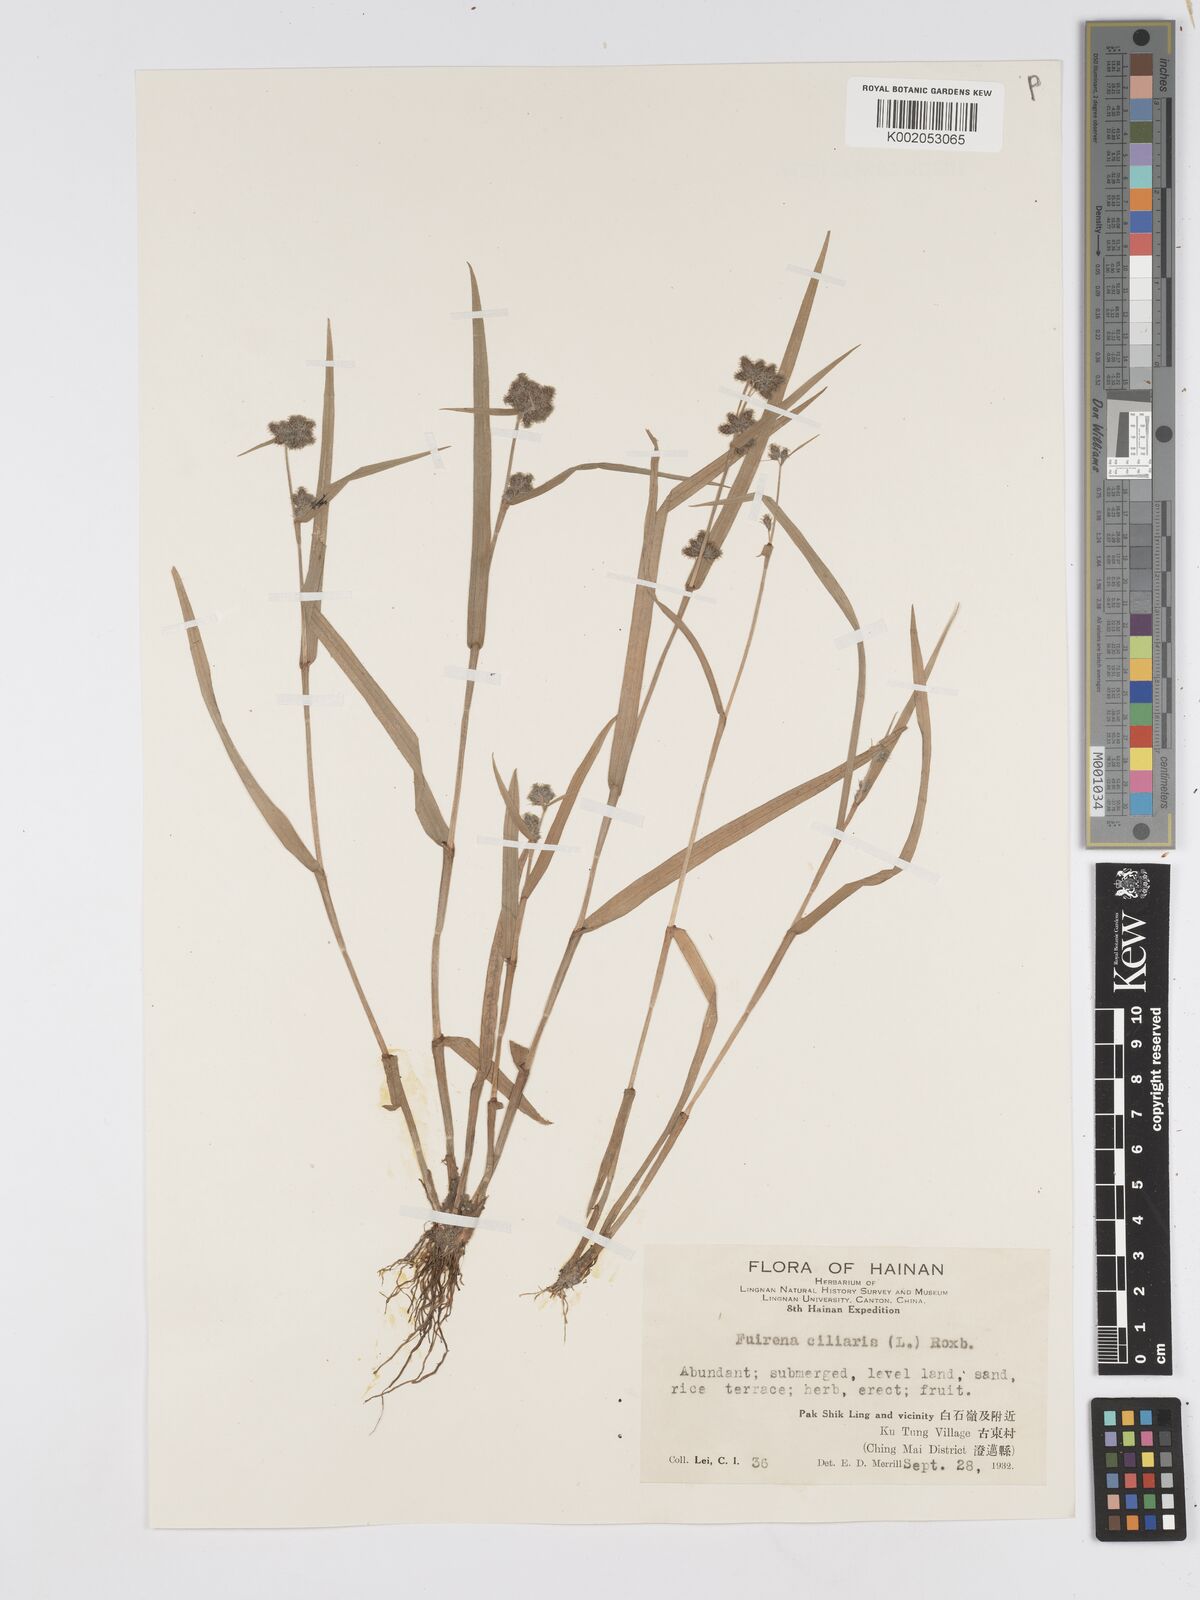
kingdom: Plantae
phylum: Tracheophyta
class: Liliopsida
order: Poales
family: Cyperaceae
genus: Fuirena
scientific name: Fuirena ciliaris
